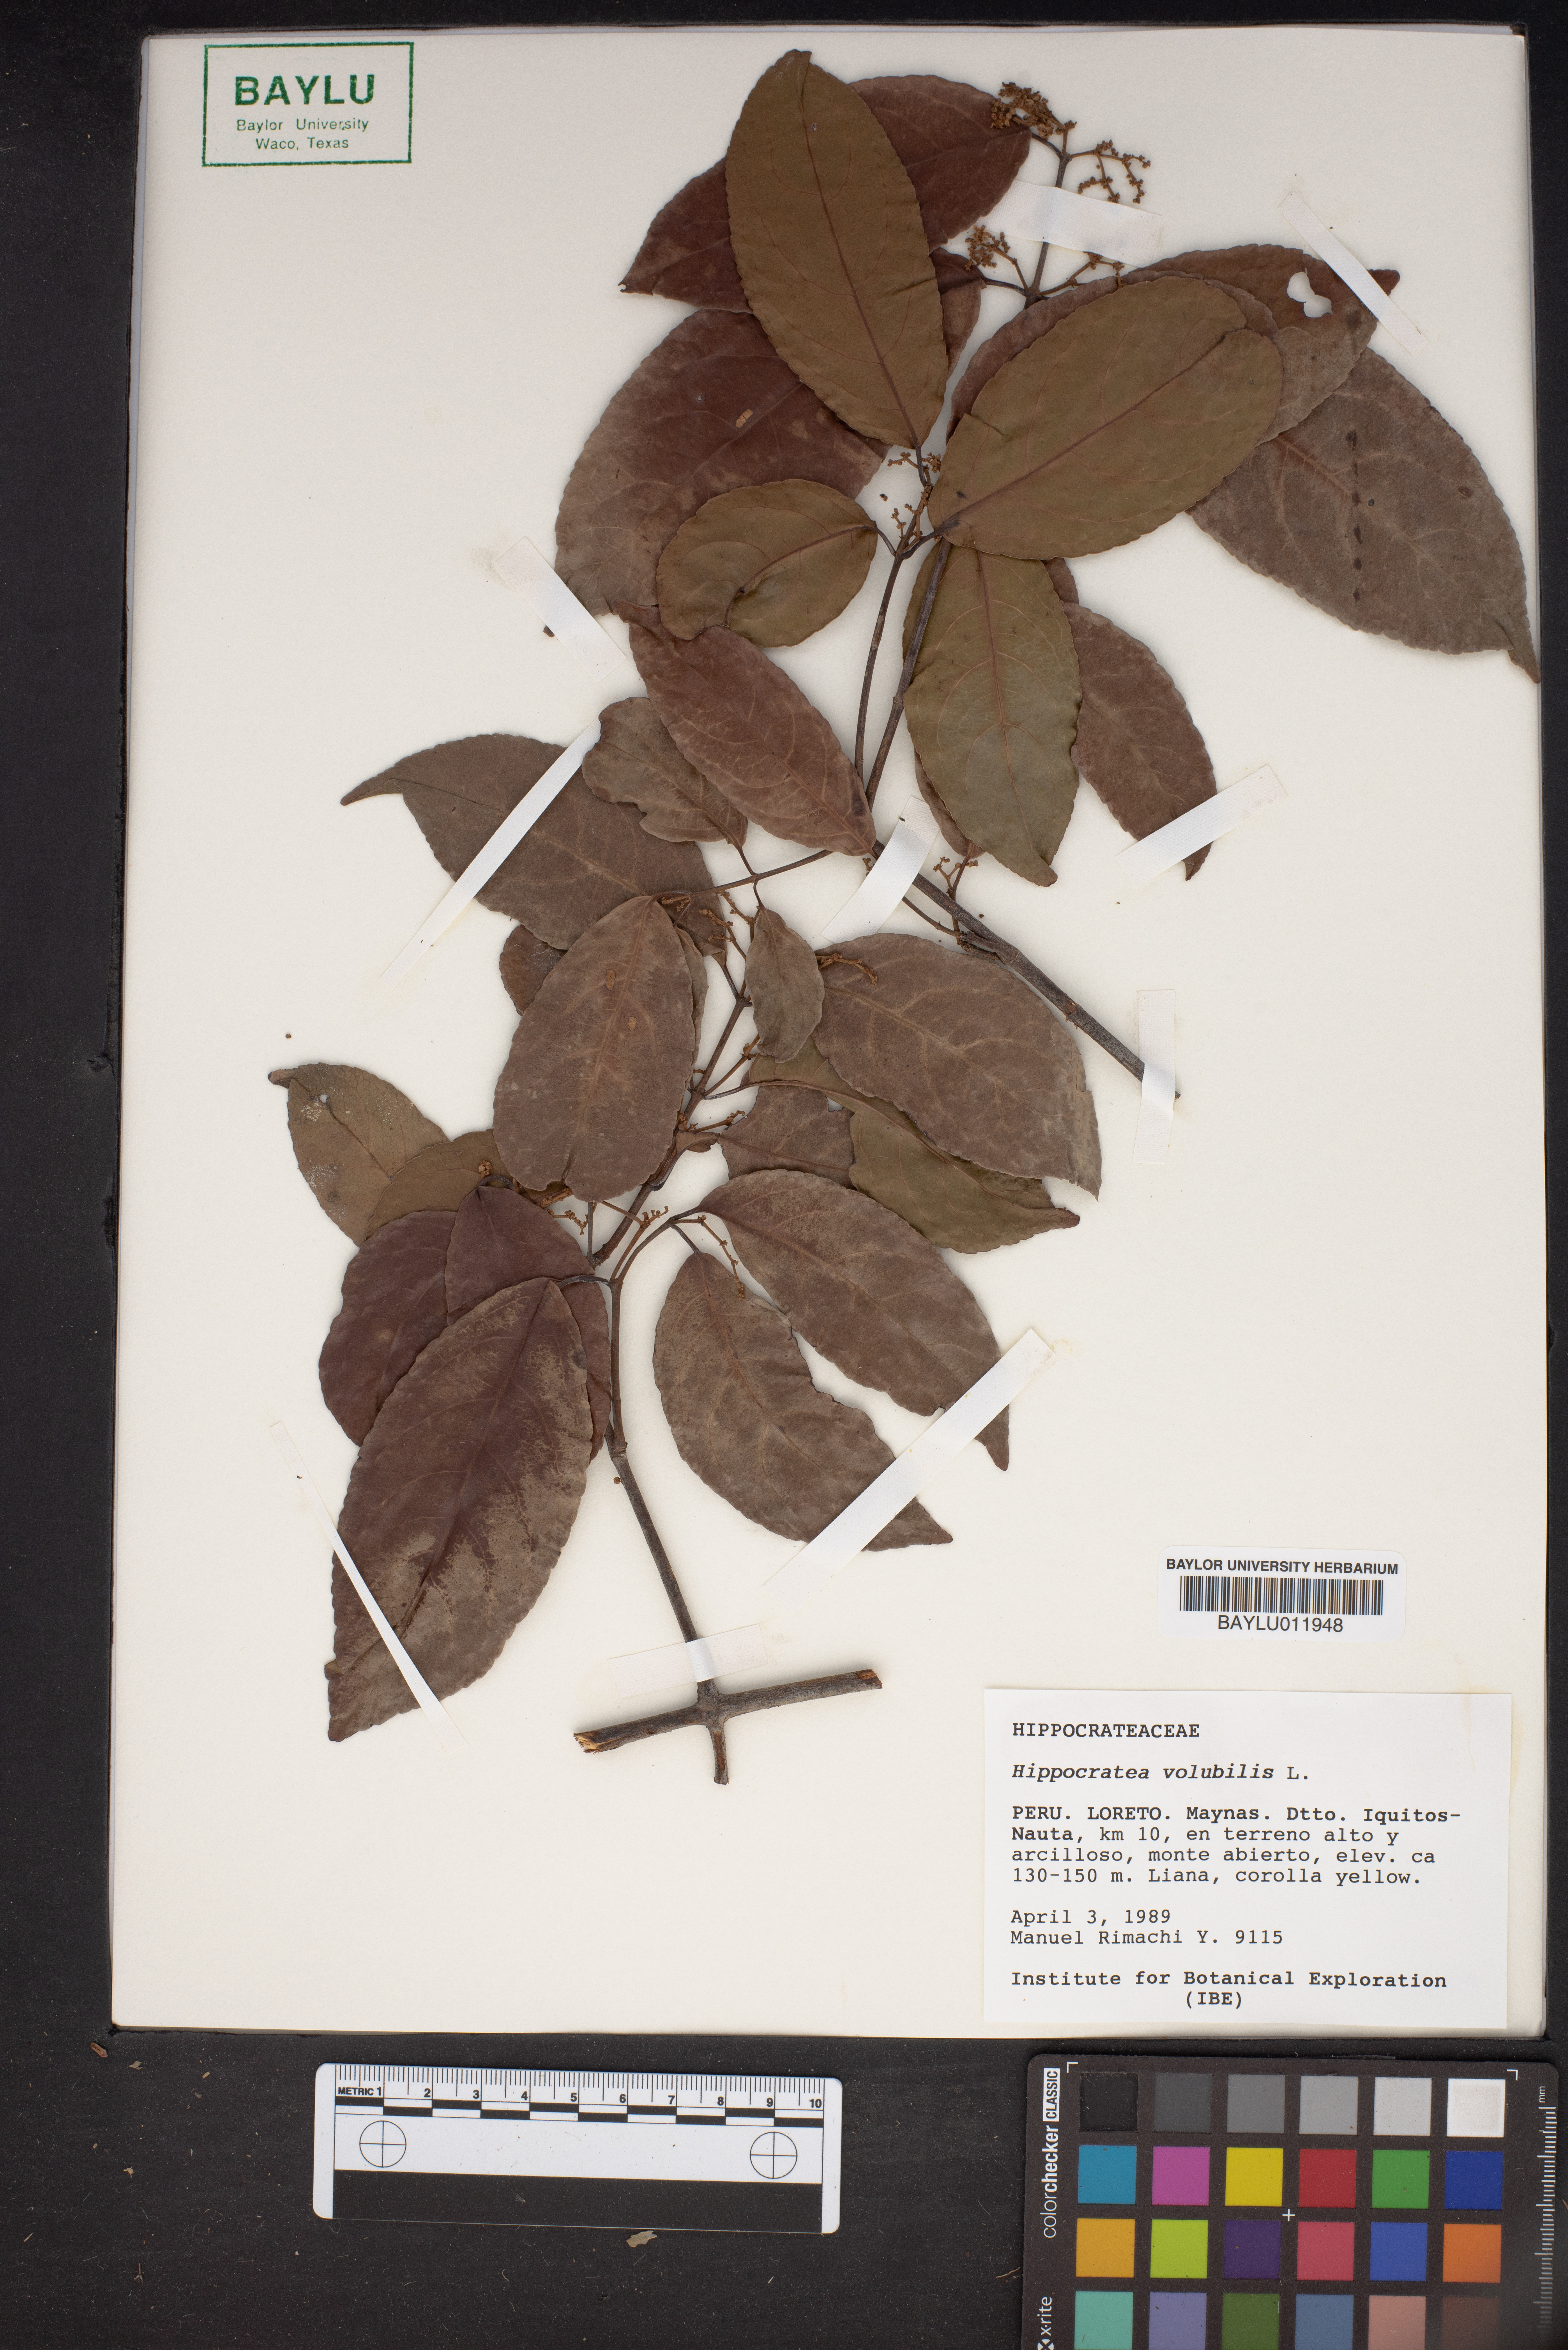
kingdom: Plantae
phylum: Tracheophyta
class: Magnoliopsida
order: Celastrales
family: Celastraceae
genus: Hippocratea
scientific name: Hippocratea volubilis
